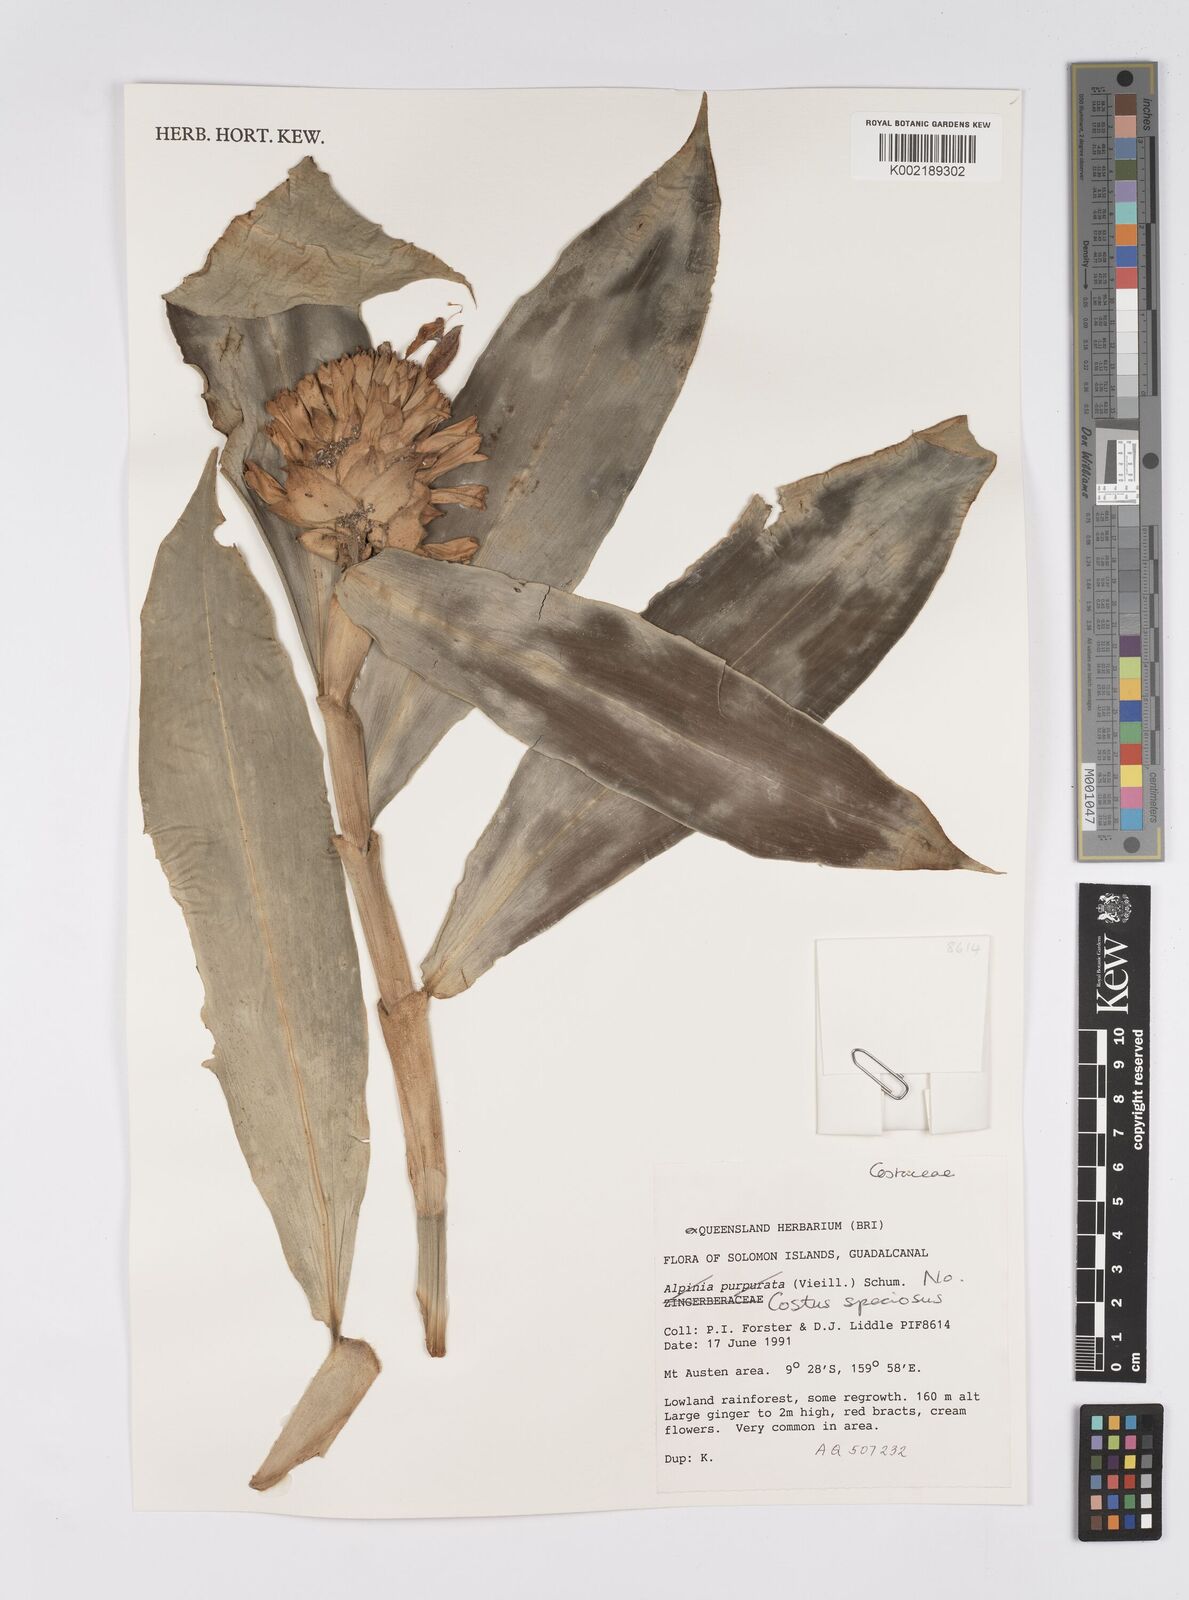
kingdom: Plantae
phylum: Tracheophyta
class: Liliopsida
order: Zingiberales
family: Costaceae
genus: Hellenia
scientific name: Hellenia speciosa
